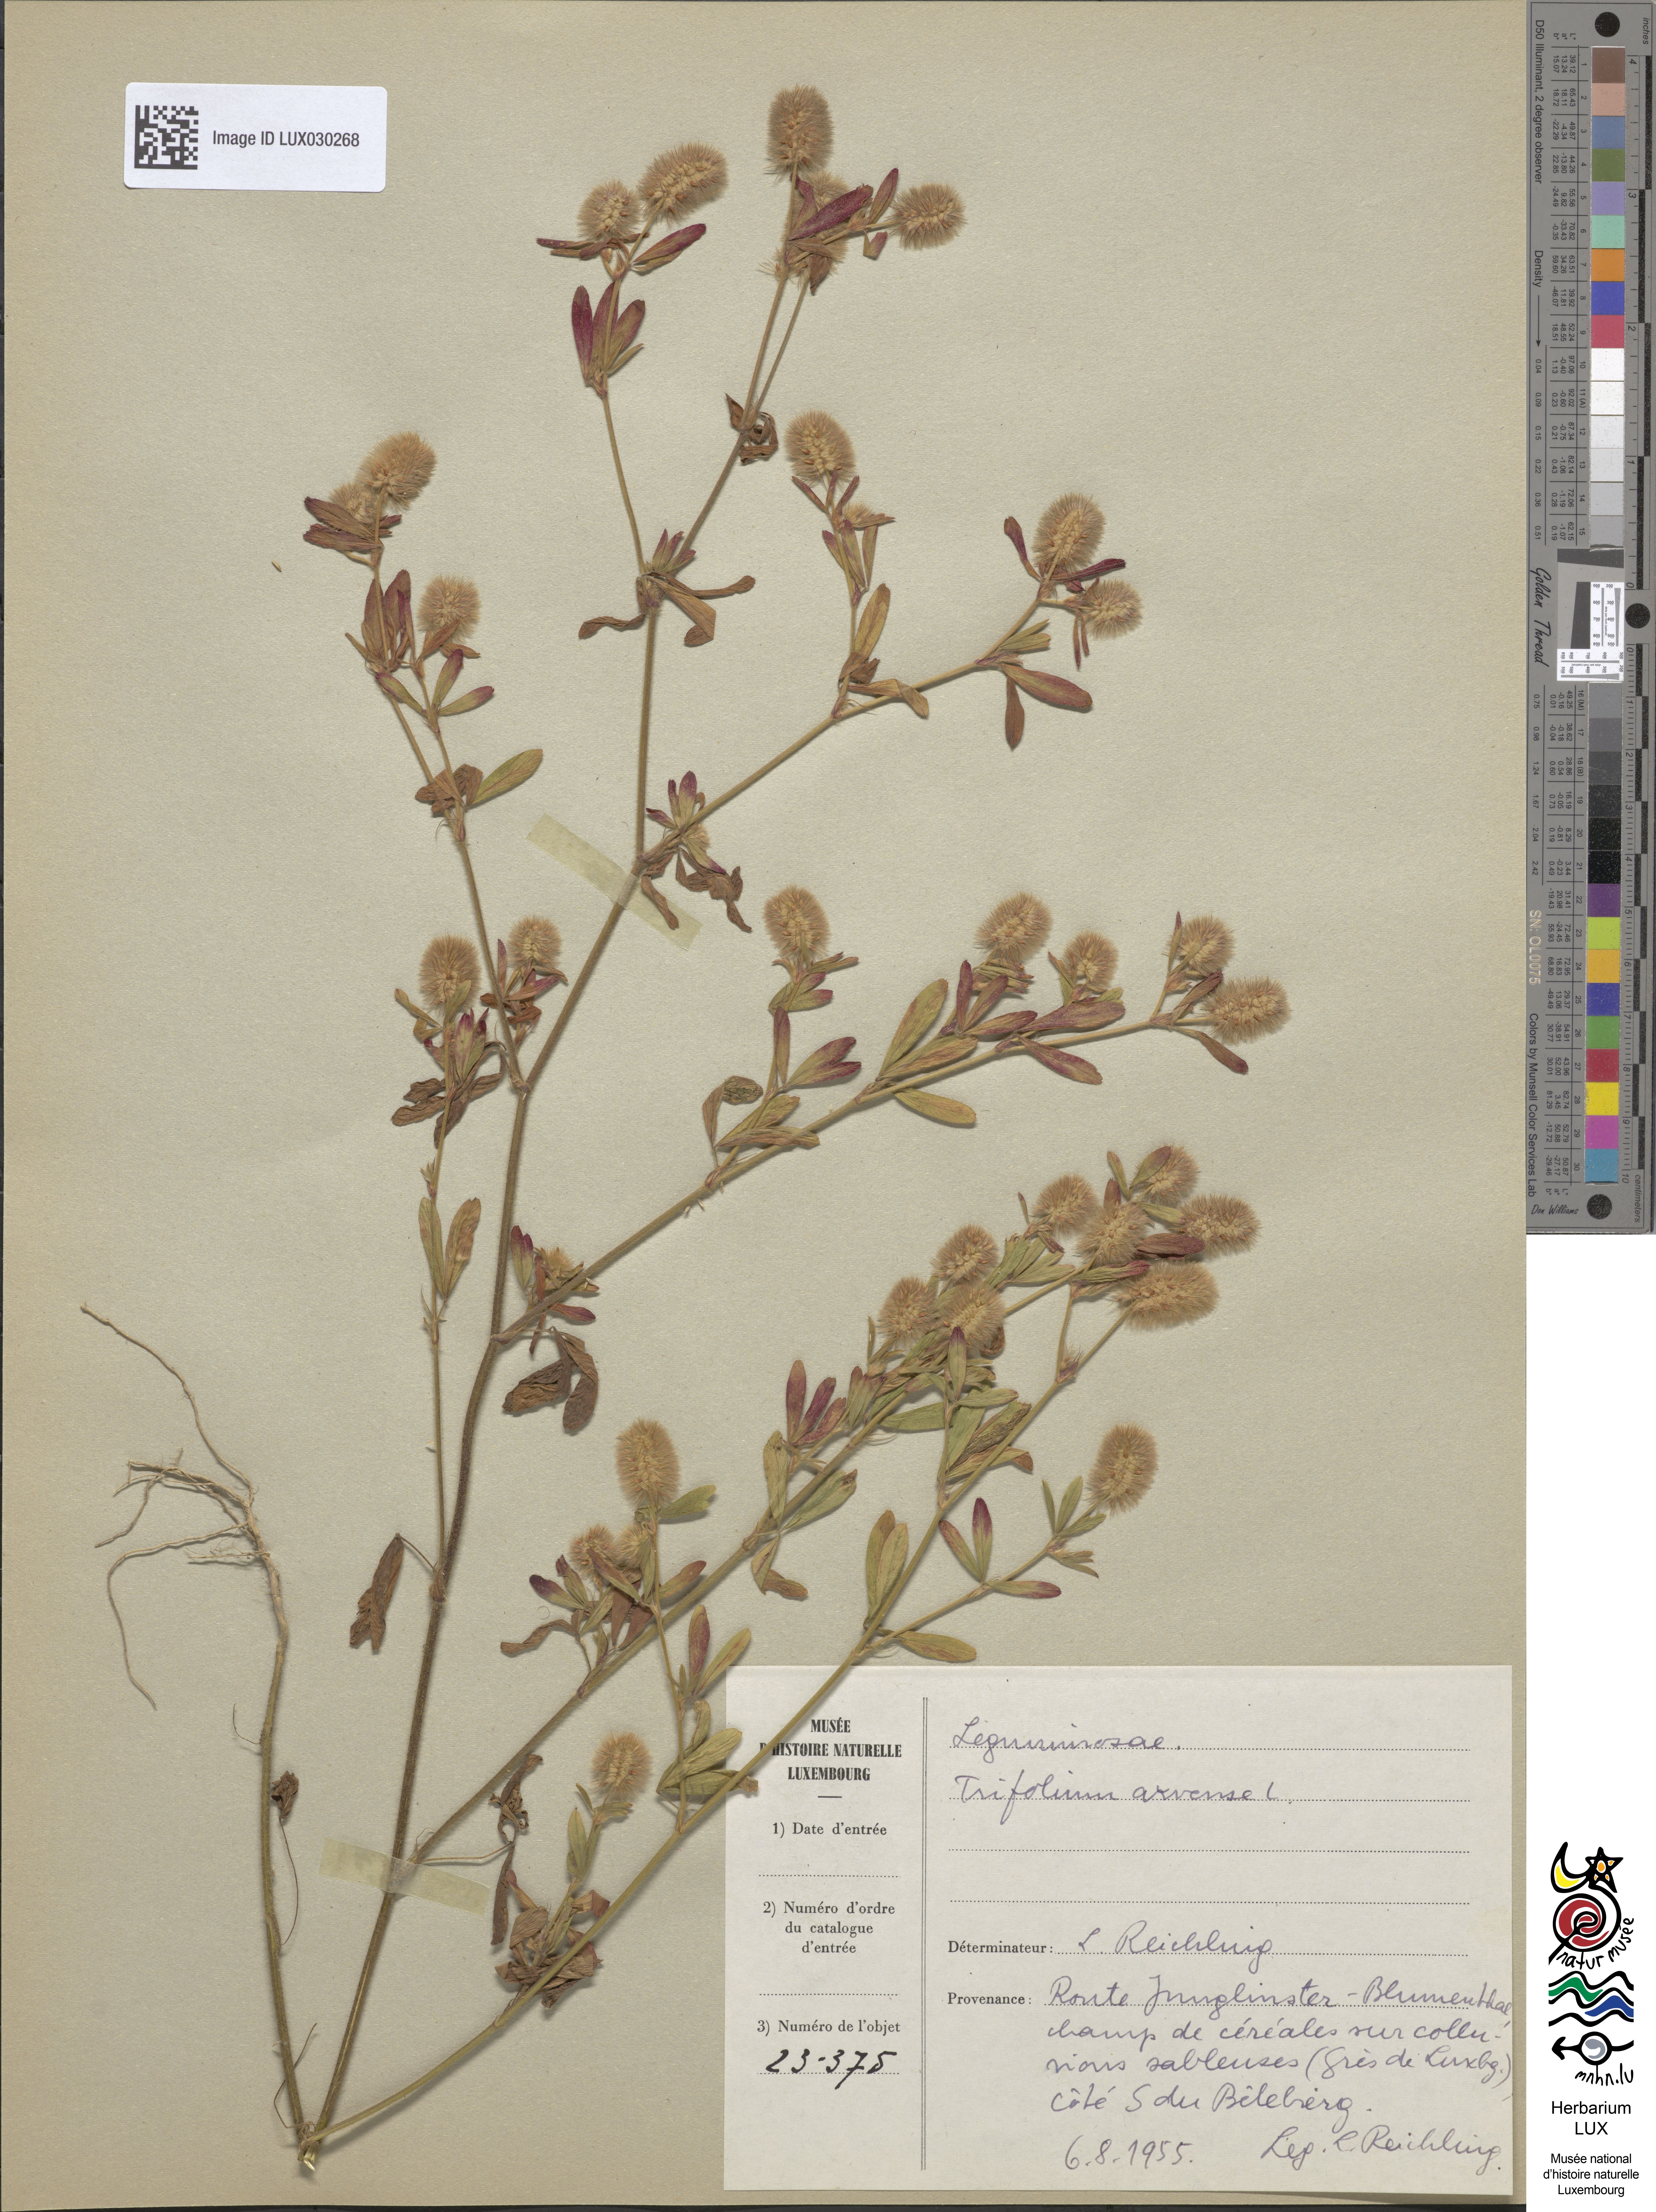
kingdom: Plantae
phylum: Tracheophyta
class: Magnoliopsida
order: Fabales
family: Fabaceae
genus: Trifolium
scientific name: Trifolium arvense
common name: Hare's-foot clover
